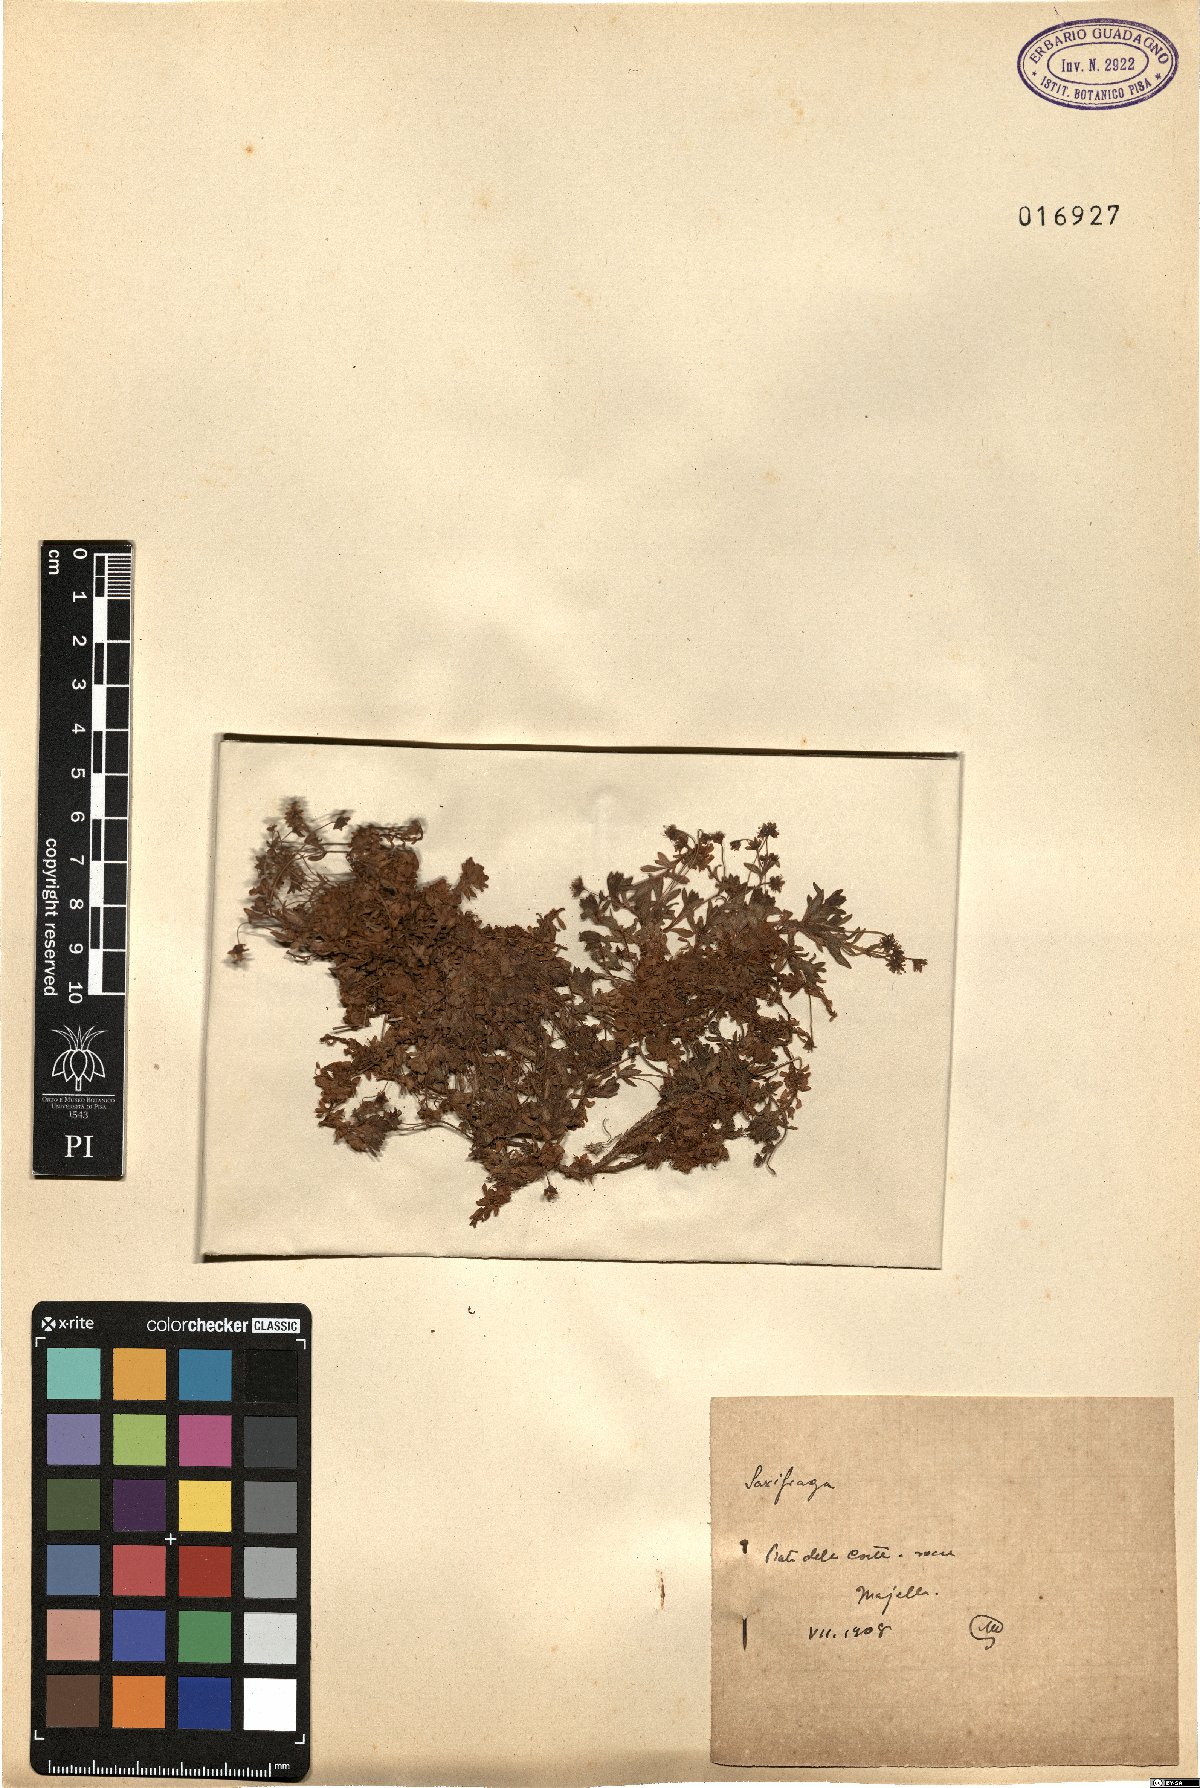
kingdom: Plantae
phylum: Tracheophyta
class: Magnoliopsida
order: Saxifragales
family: Saxifragaceae
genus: Saxifraga
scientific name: Saxifraga
